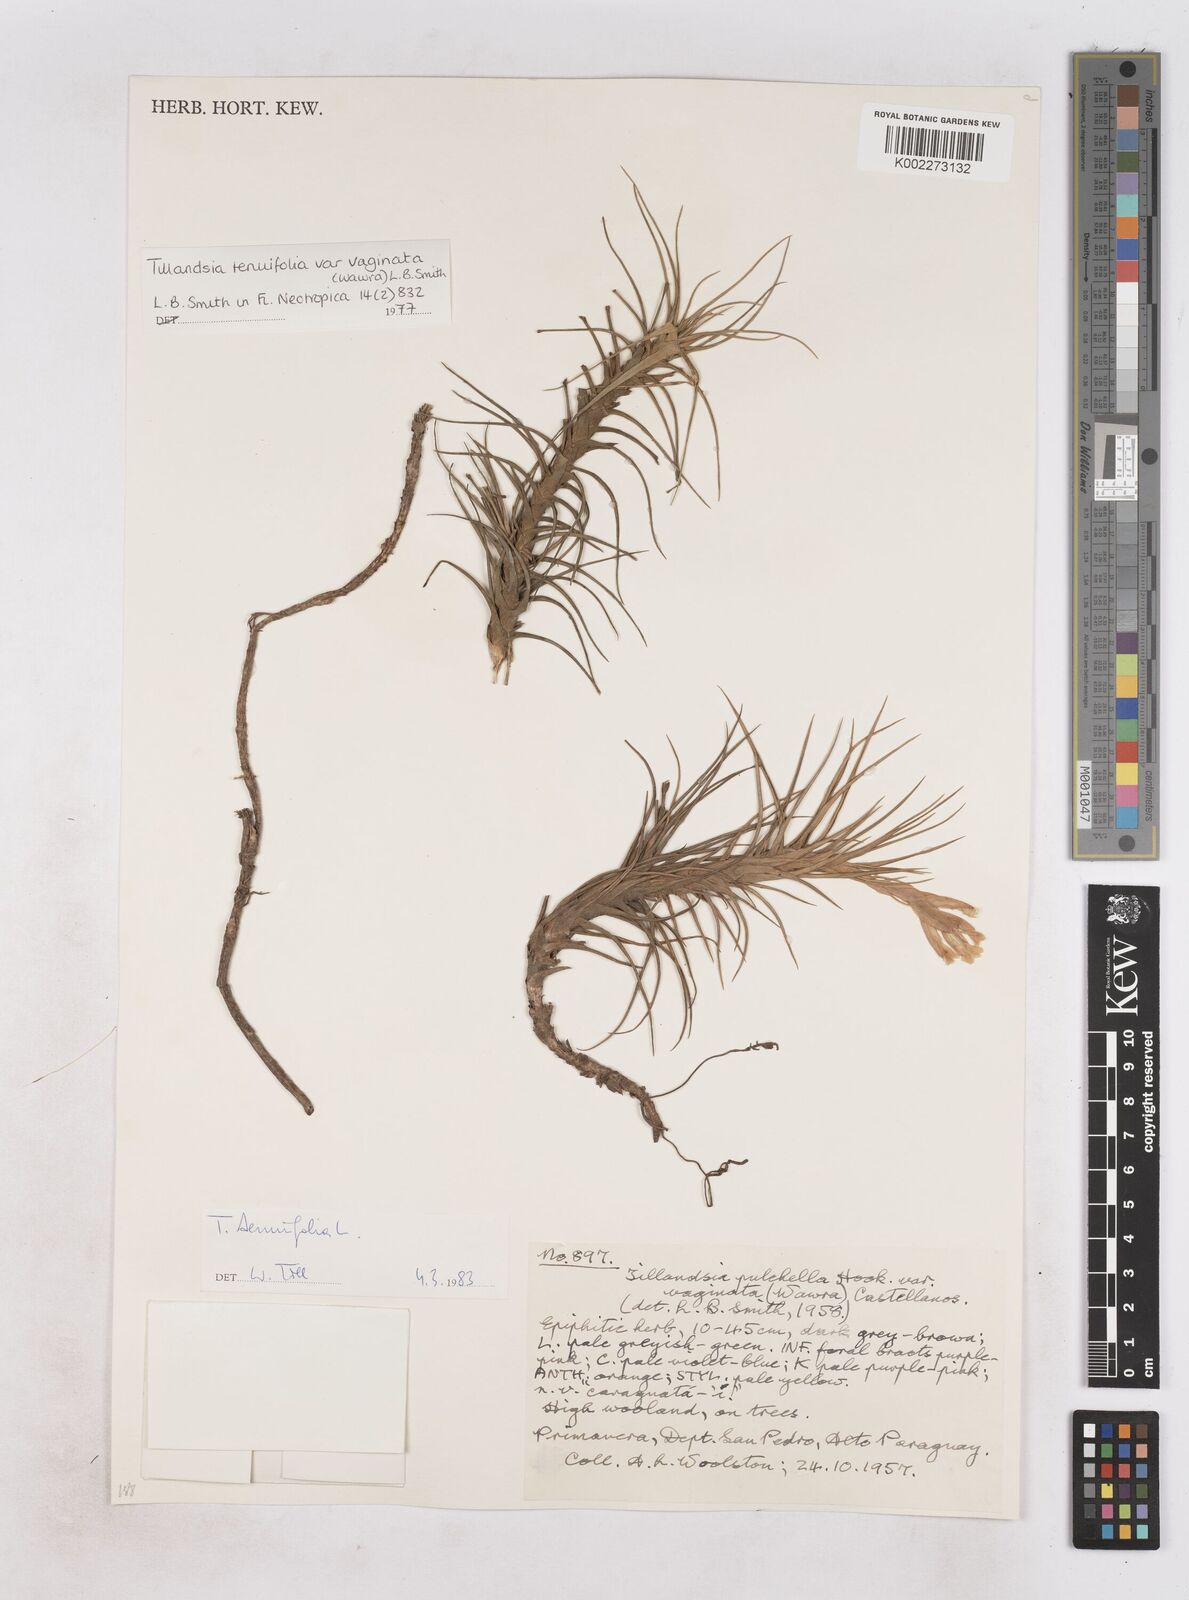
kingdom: Plantae
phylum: Tracheophyta
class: Liliopsida
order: Poales
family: Bromeliaceae
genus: Tillandsia
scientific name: Tillandsia tenuifolia
